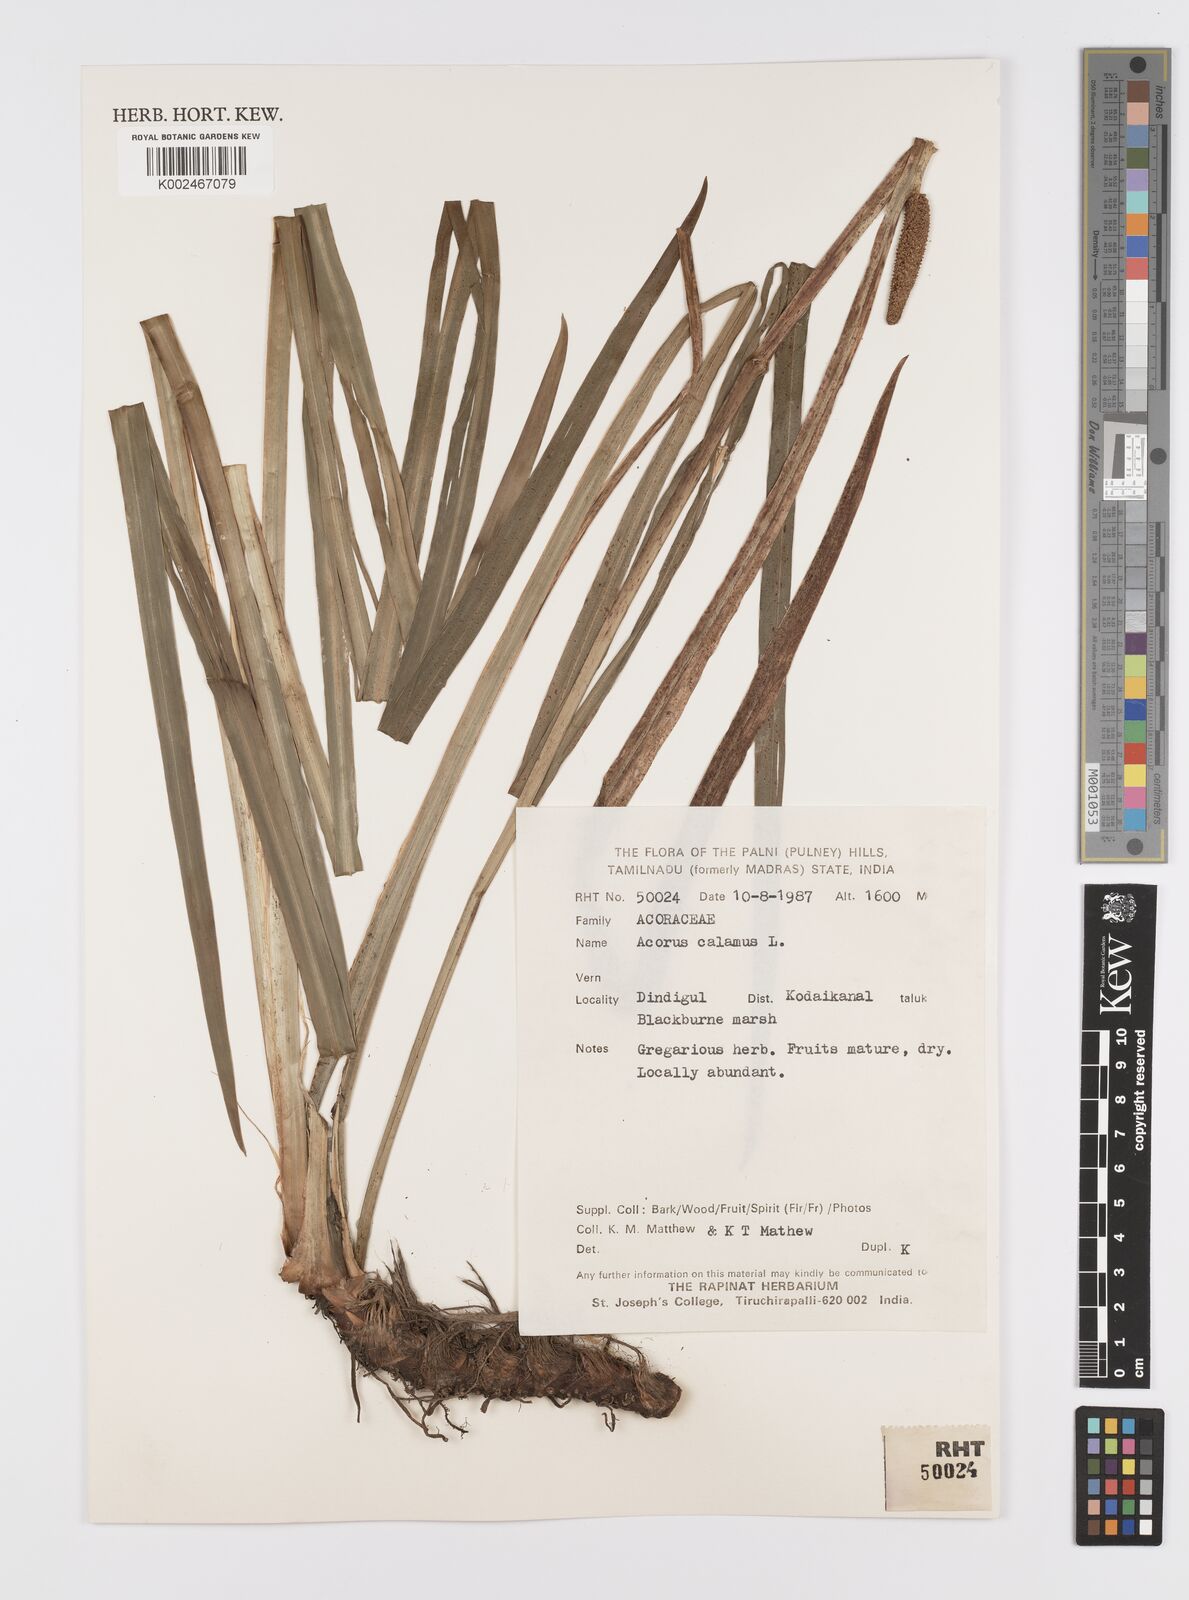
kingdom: Plantae
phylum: Tracheophyta
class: Liliopsida
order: Acorales
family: Acoraceae
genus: Acorus
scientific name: Acorus calamus
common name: Sweet-flag
